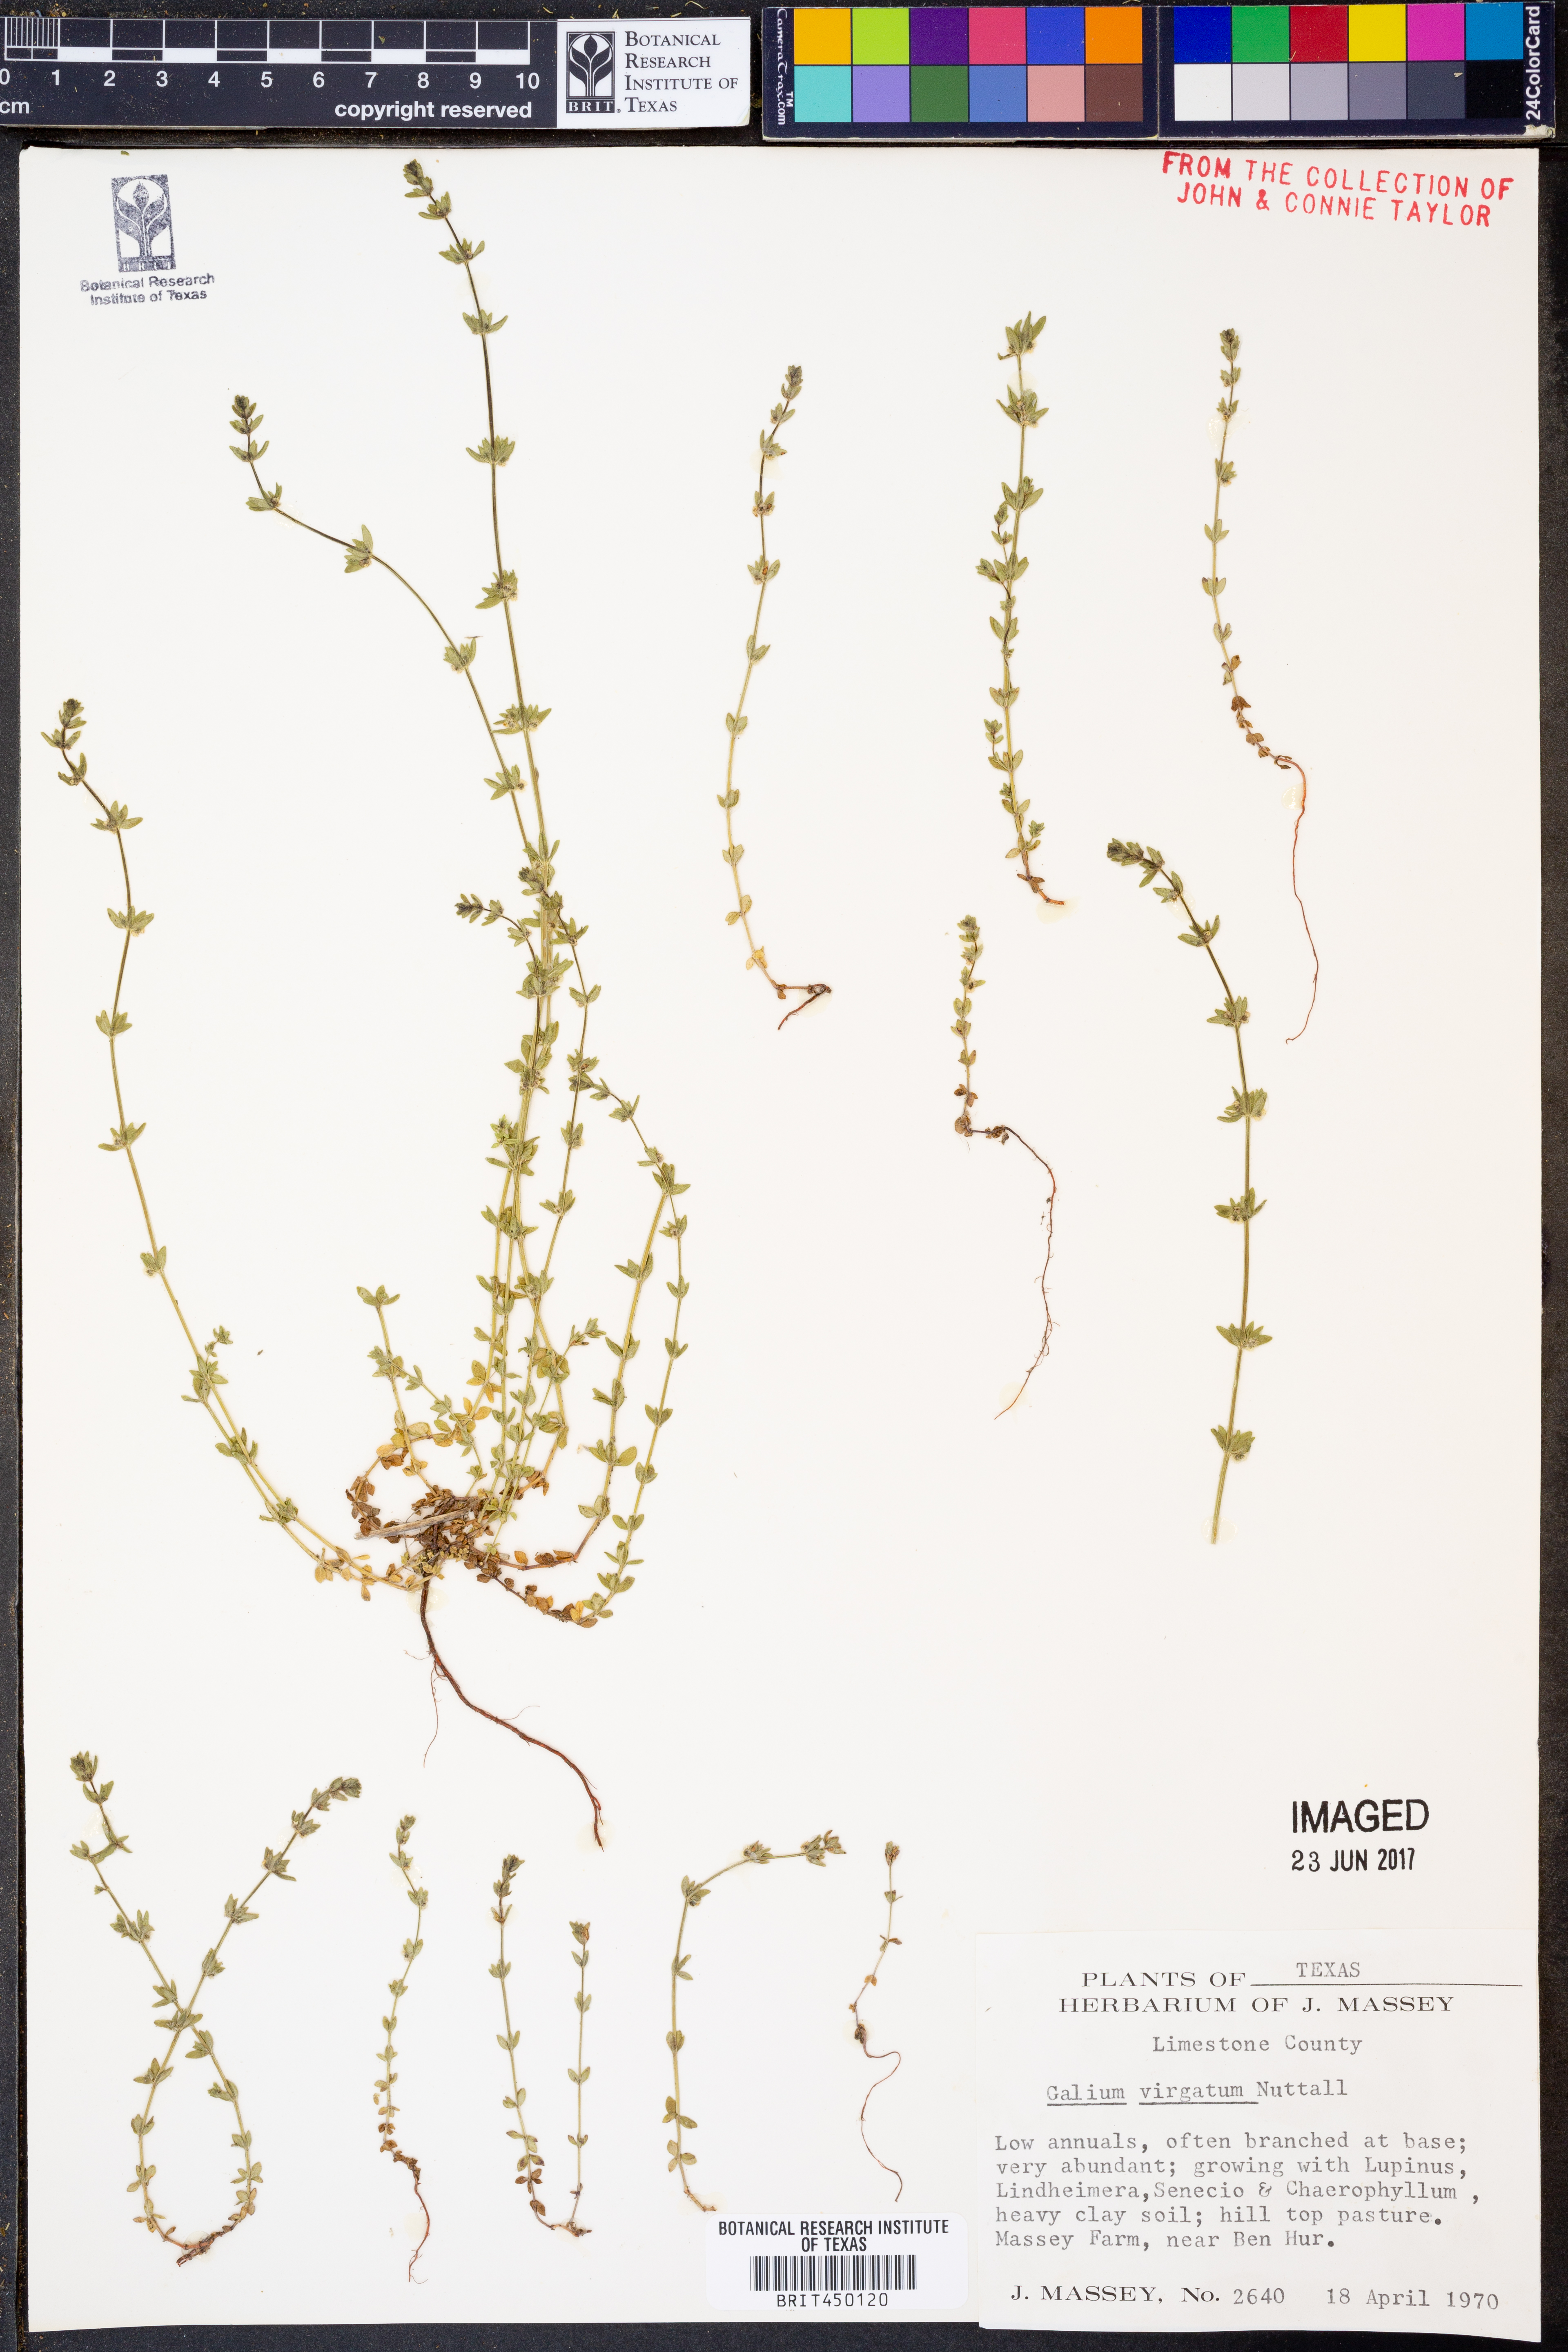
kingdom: Plantae
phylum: Tracheophyta
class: Magnoliopsida
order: Gentianales
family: Rubiaceae
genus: Galium
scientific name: Galium virgatum
